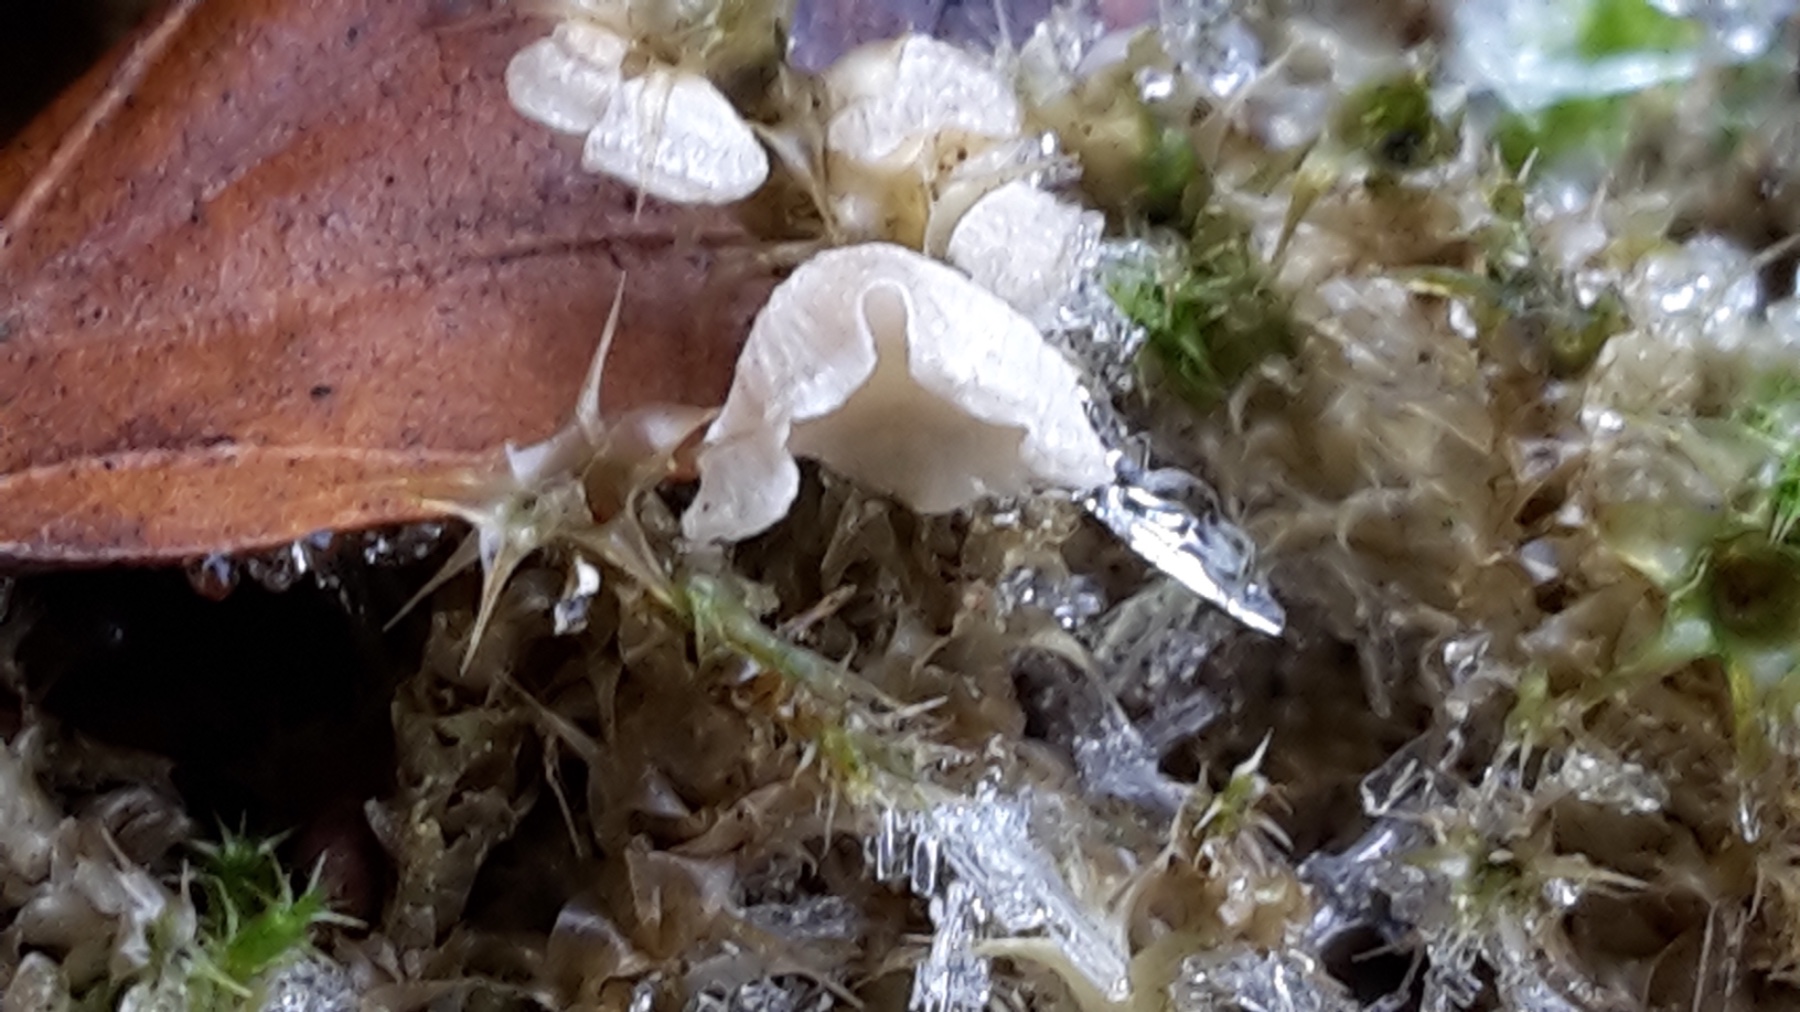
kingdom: Fungi
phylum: Basidiomycota
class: Agaricomycetes
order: Agaricales
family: Hygrophoraceae
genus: Arrhenia
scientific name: Arrhenia retiruga
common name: lille fontænehat
